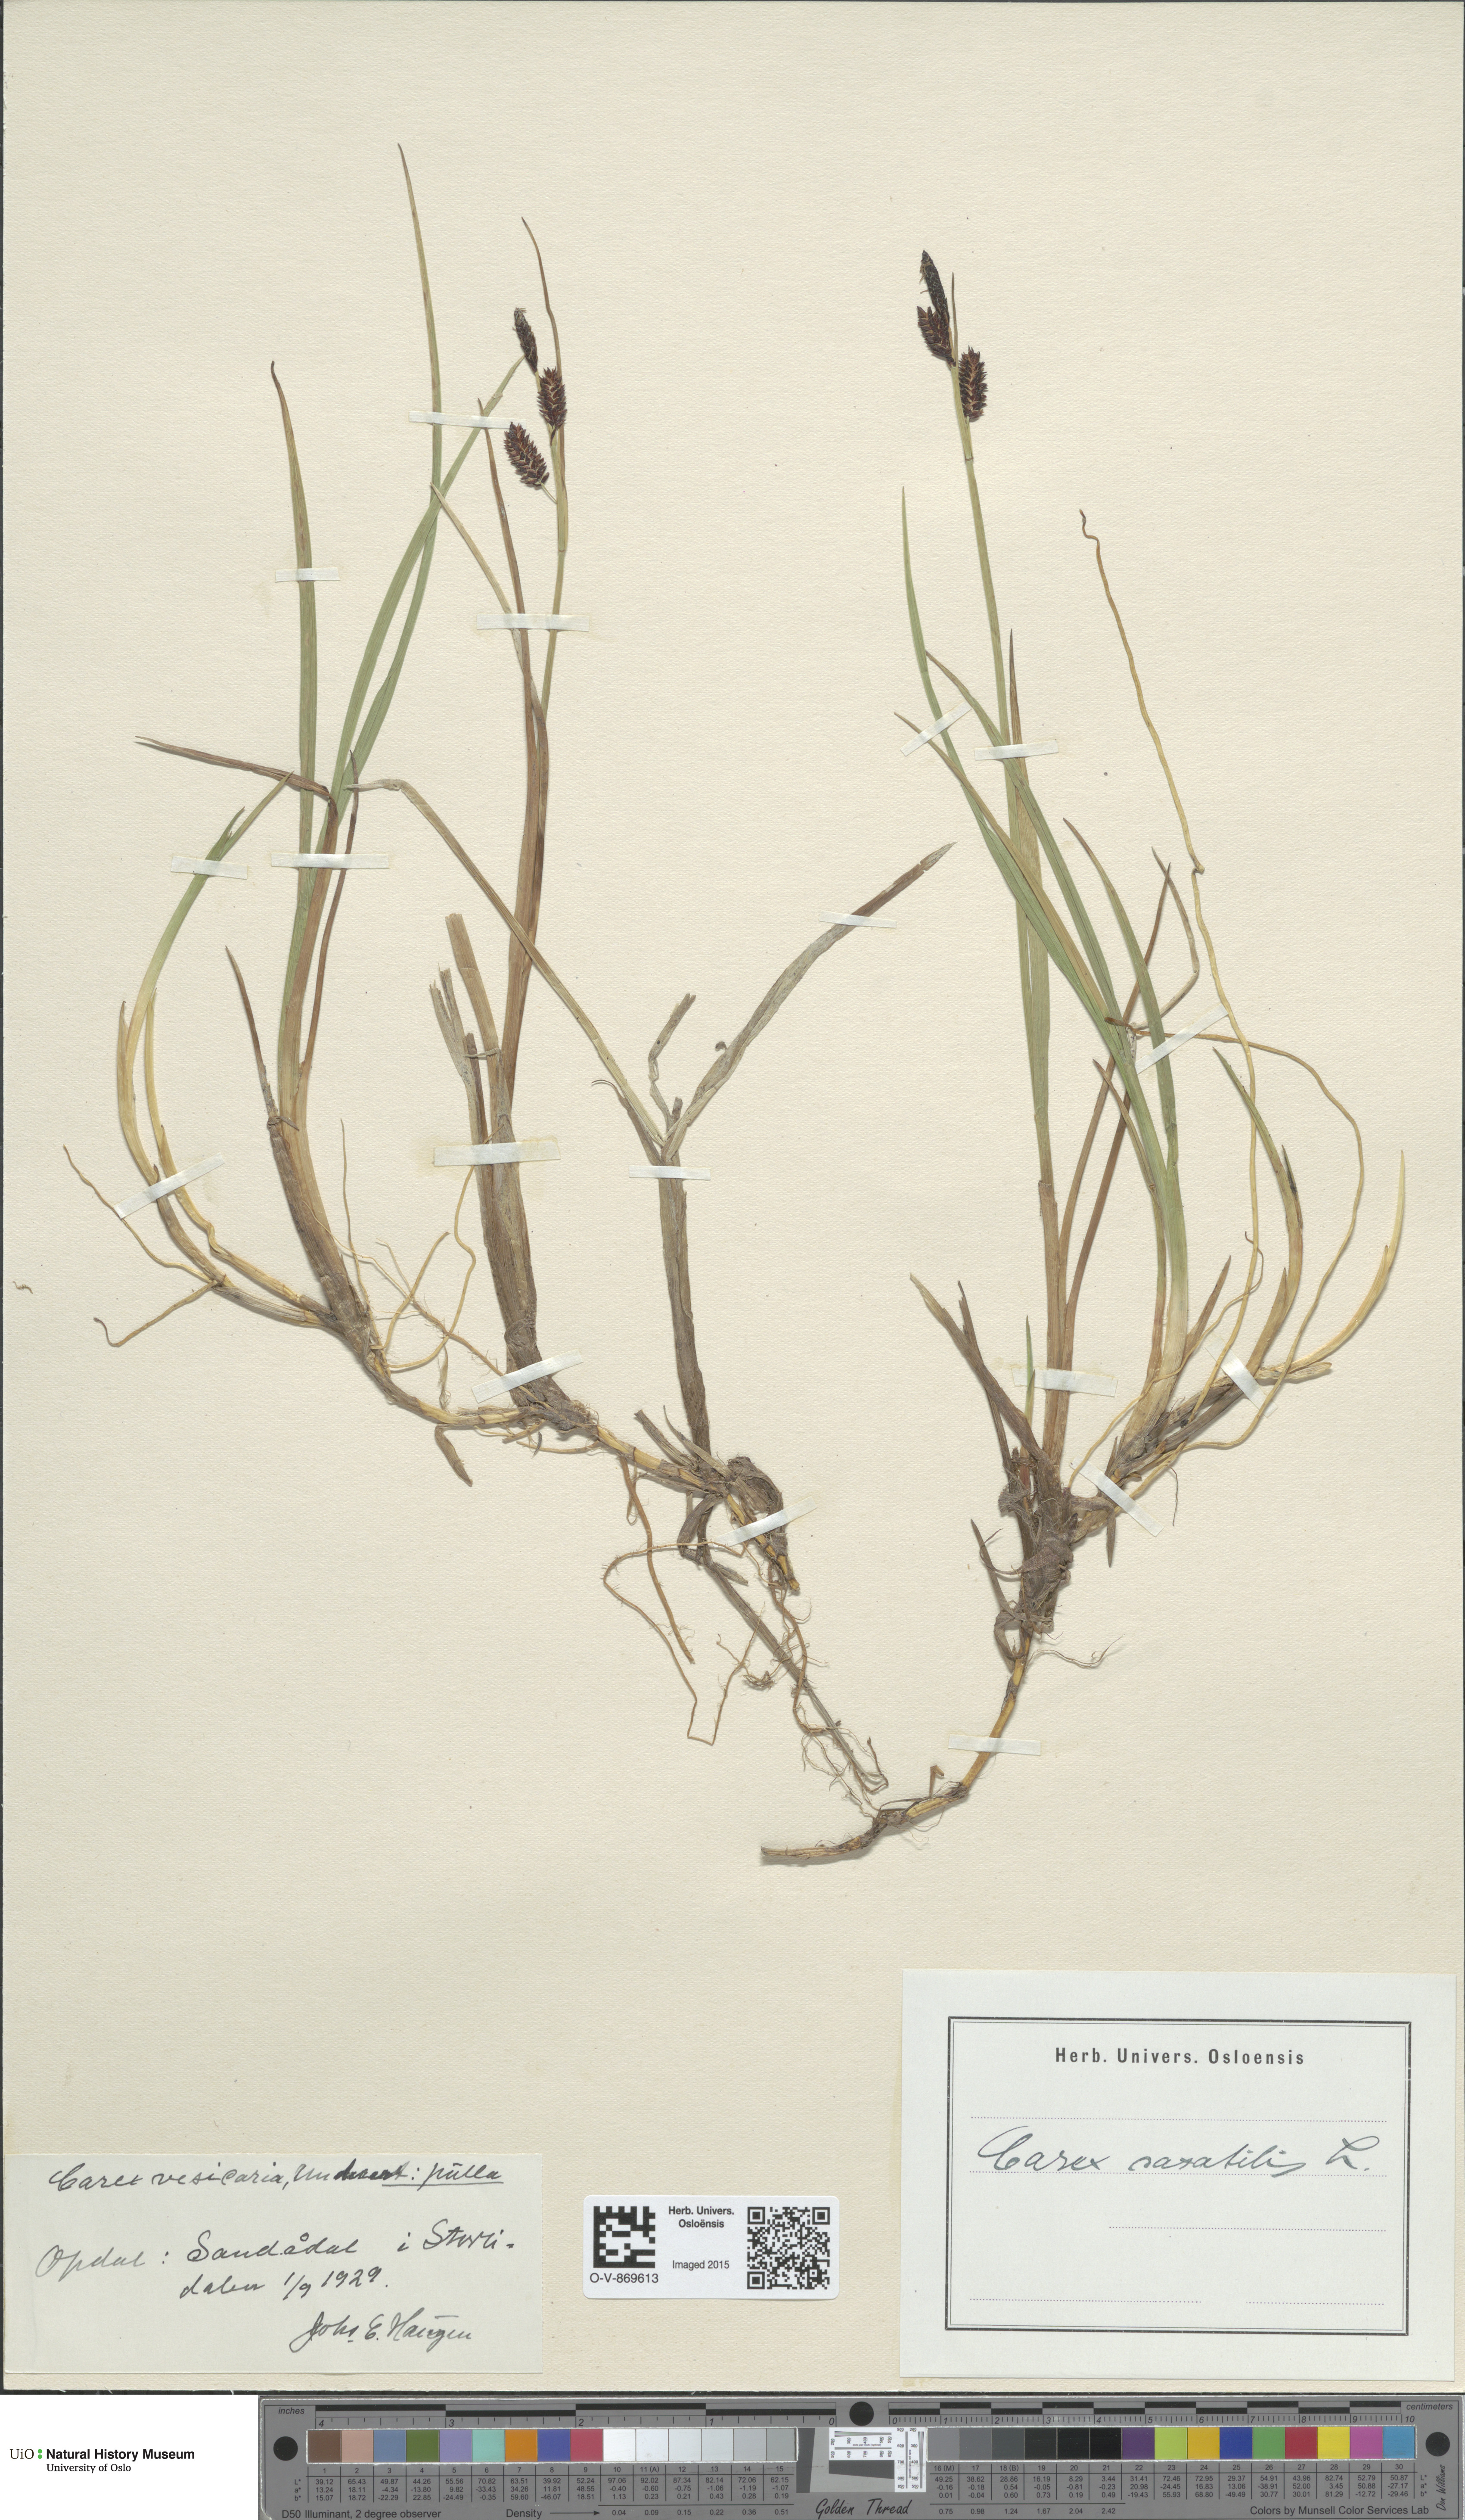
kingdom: Plantae
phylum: Tracheophyta
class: Liliopsida
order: Poales
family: Cyperaceae
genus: Carex
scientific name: Carex saxatilis
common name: Russet sedge
